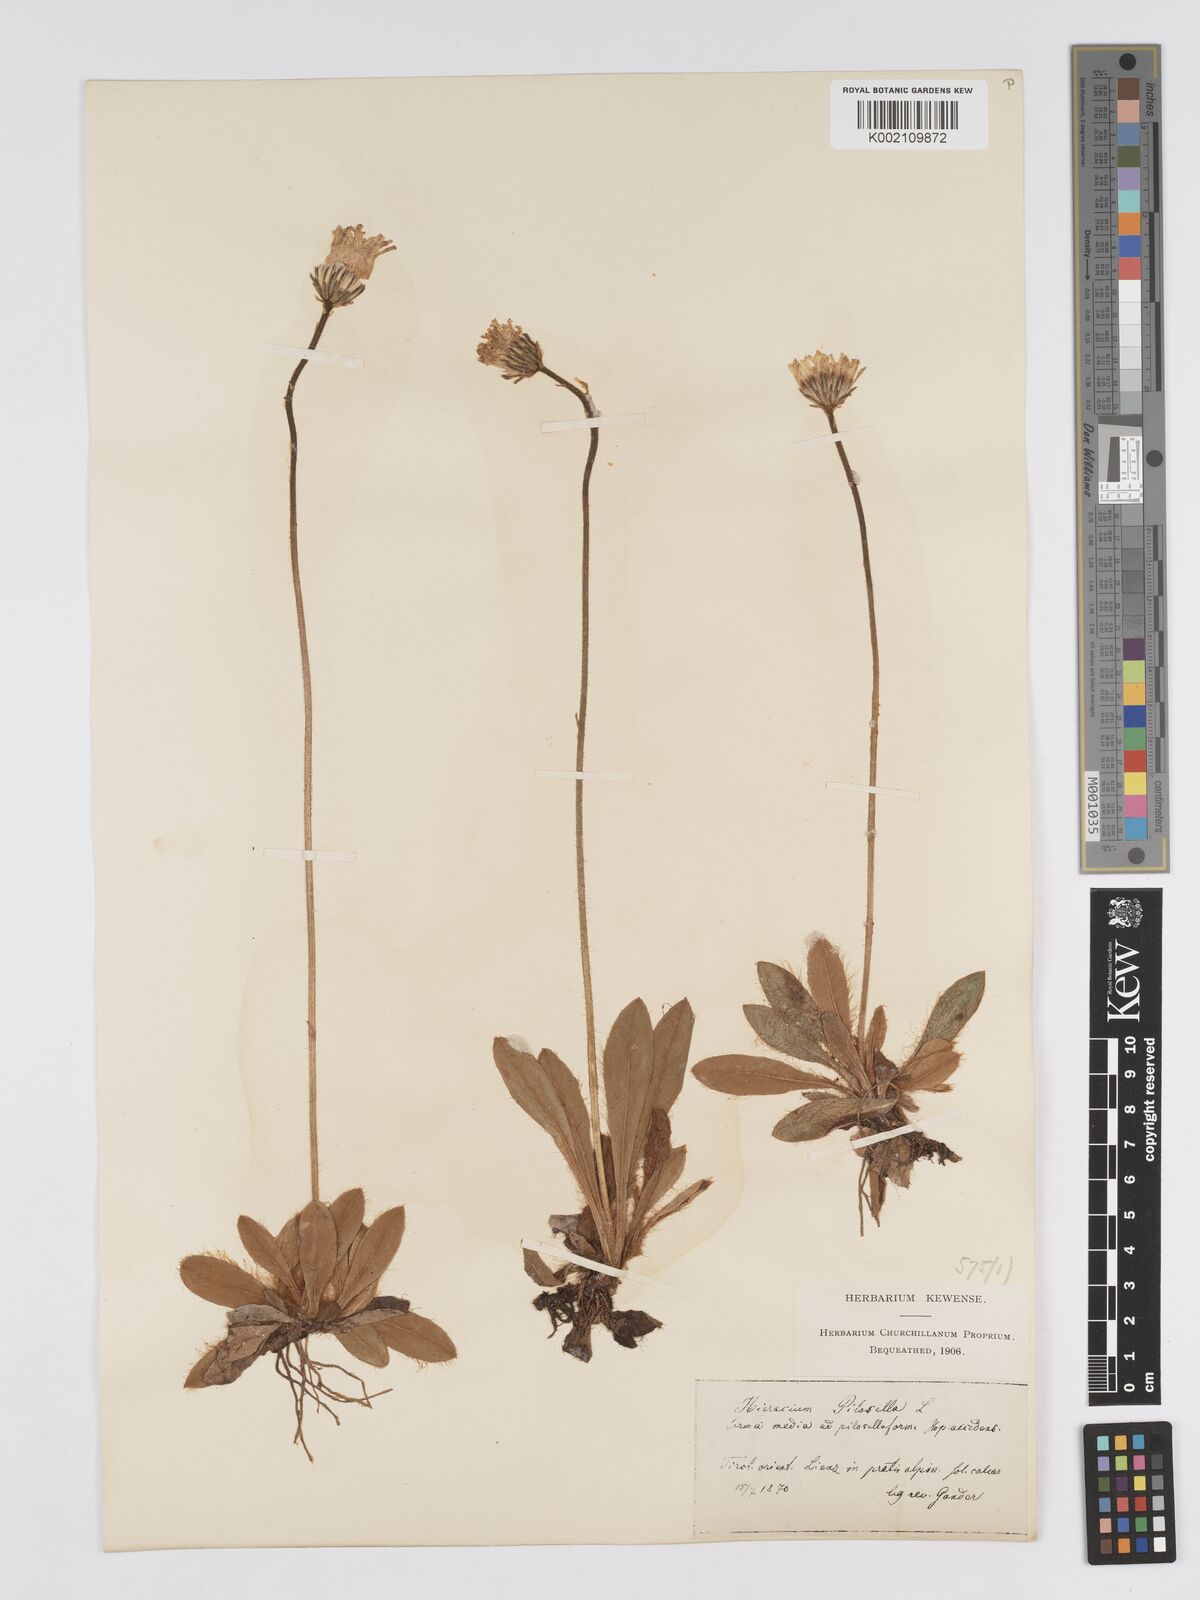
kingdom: Plantae
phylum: Tracheophyta
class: Magnoliopsida
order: Asterales
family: Asteraceae
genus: Pilosella
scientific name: Pilosella hoppeana
